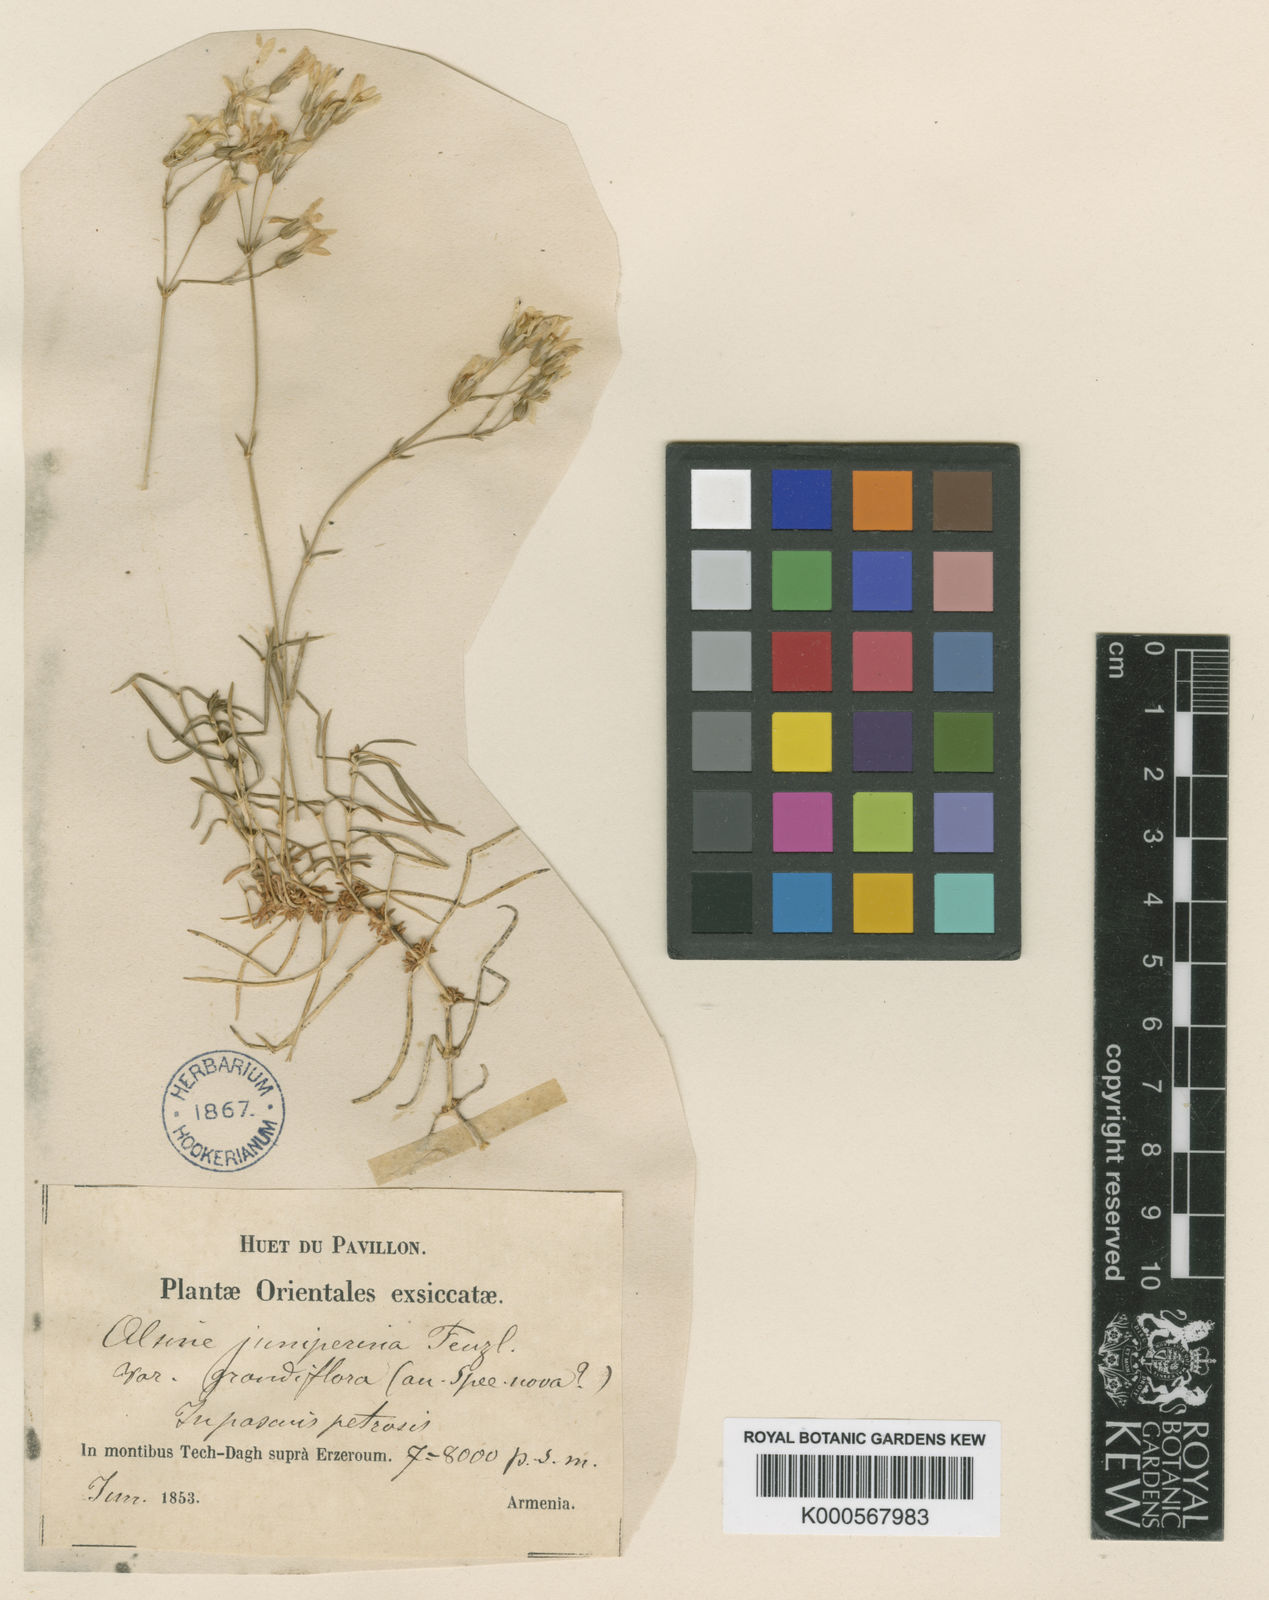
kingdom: Plantae
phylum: Tracheophyta
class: Magnoliopsida
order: Caryophyllales
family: Caryophyllaceae
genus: Sabulina
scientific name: Sabulina juniperina
